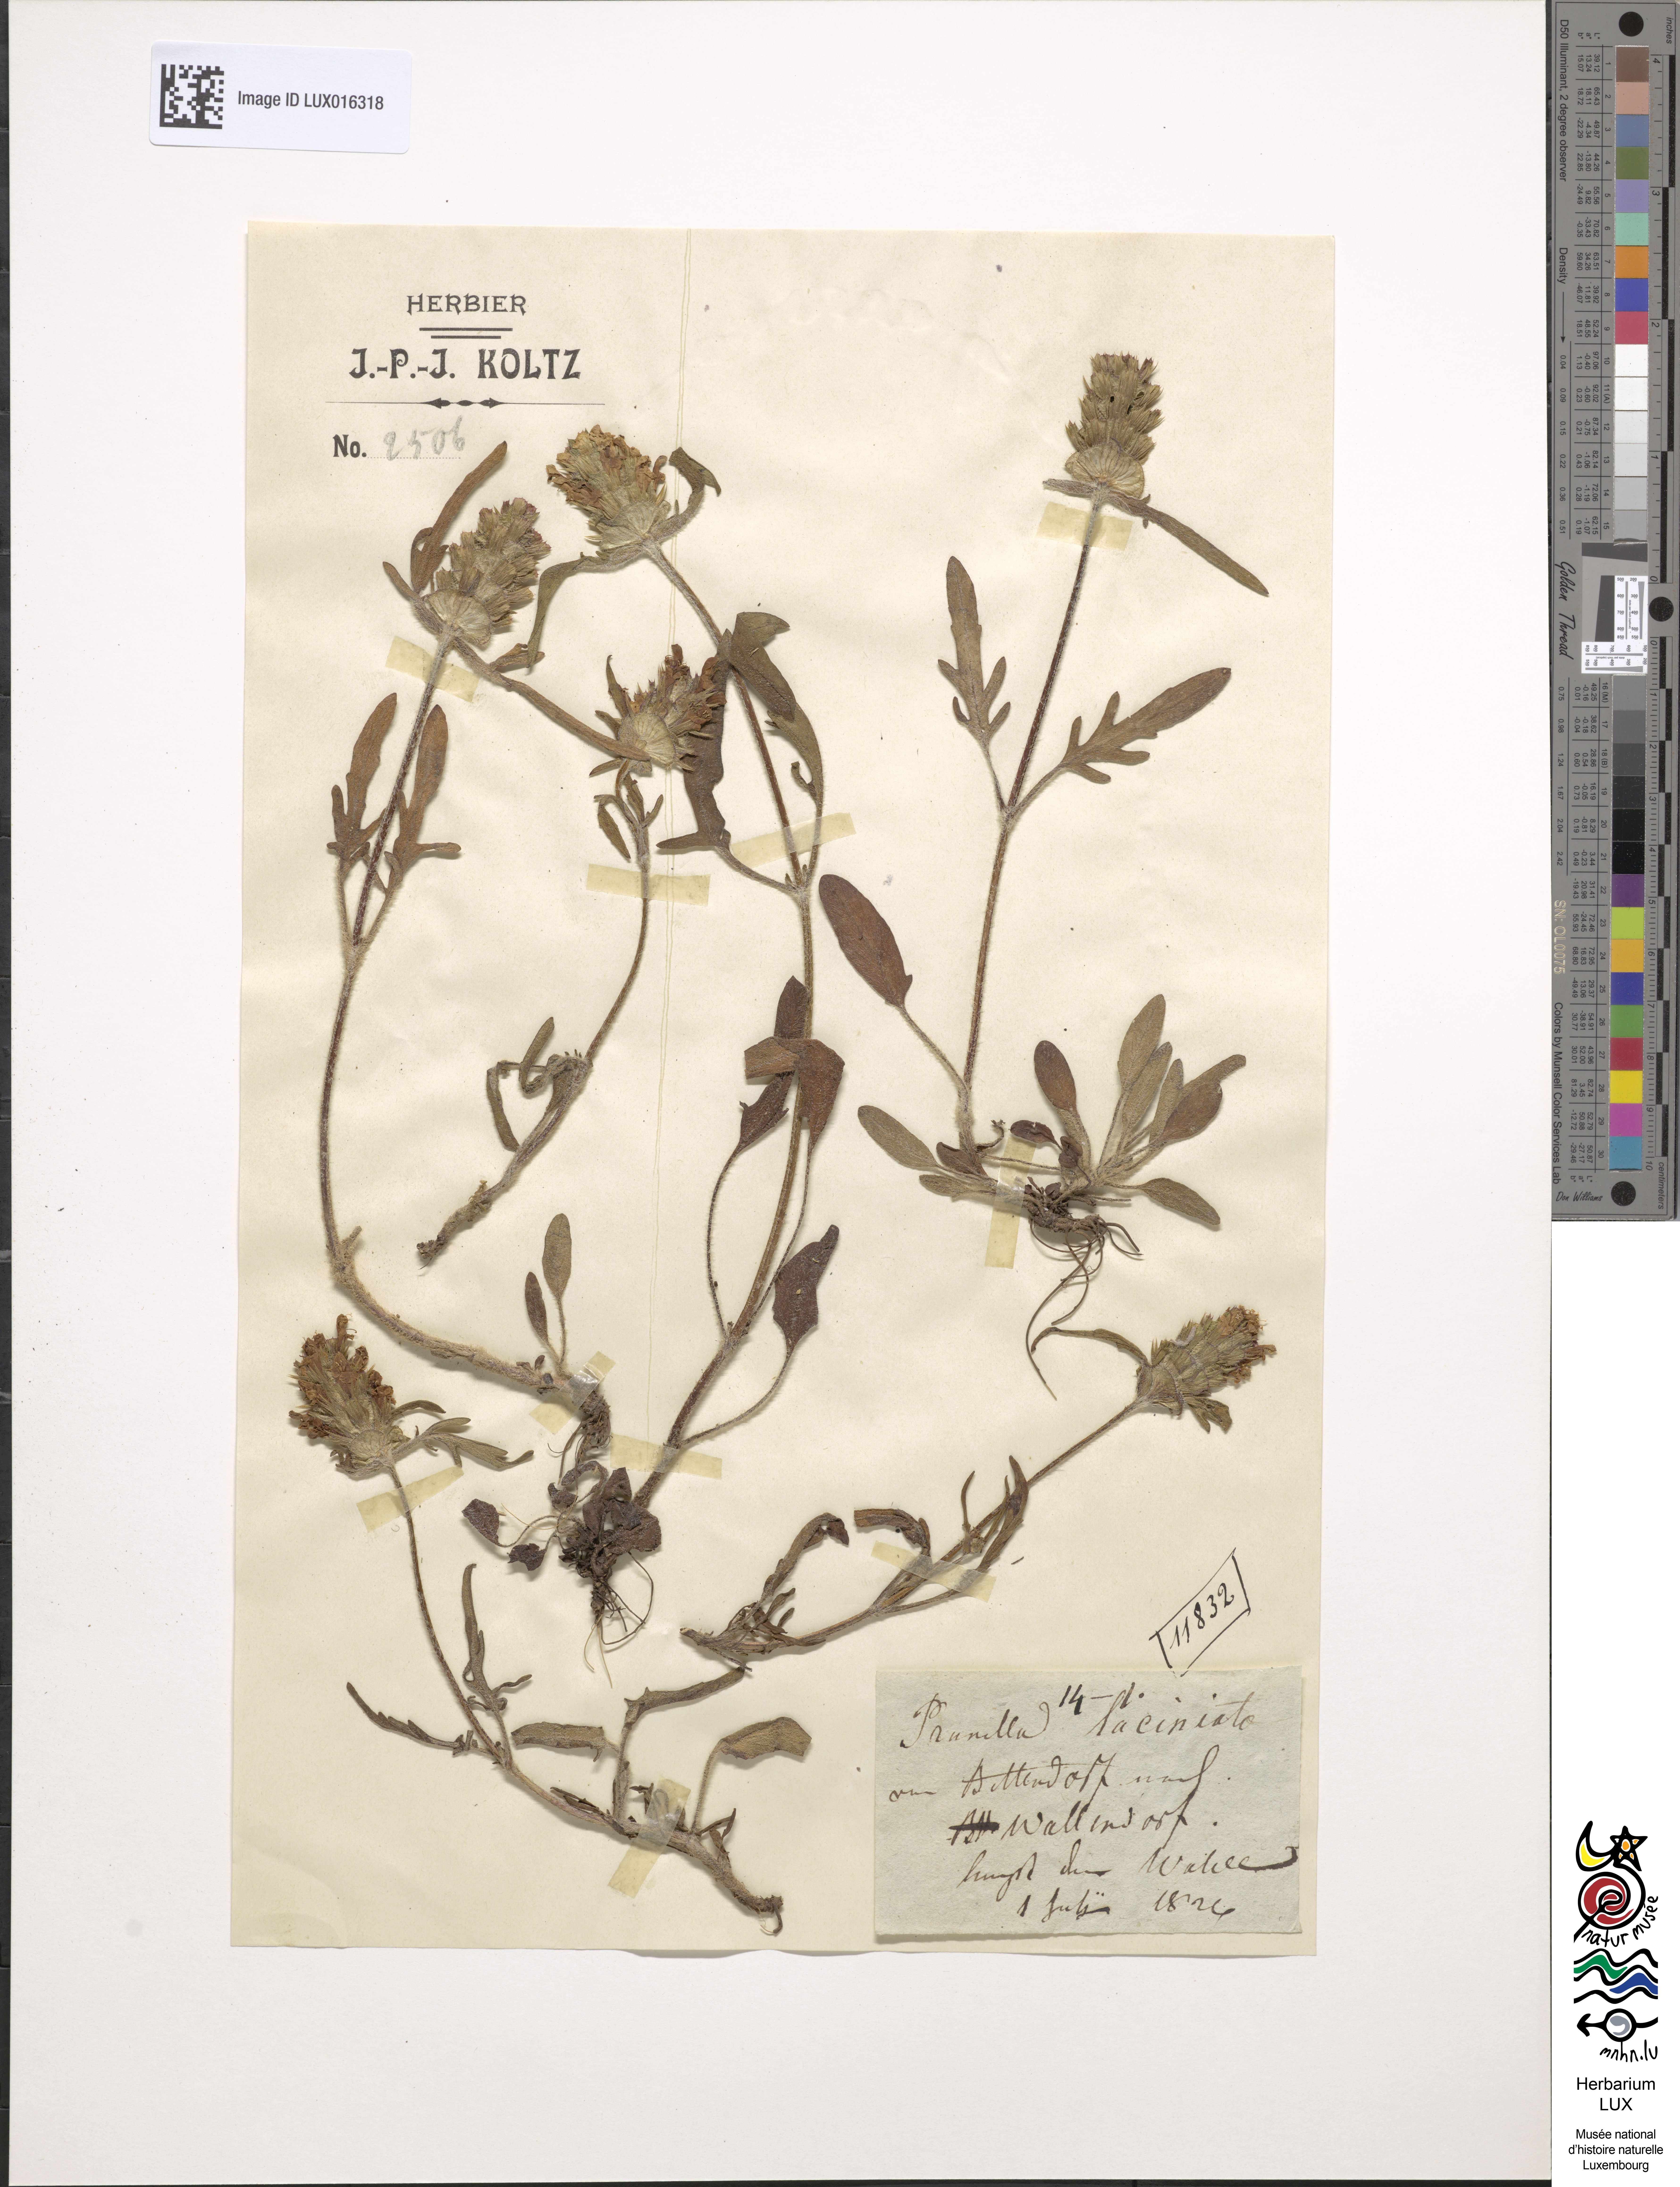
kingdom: Plantae
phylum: Tracheophyta
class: Magnoliopsida
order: Lamiales
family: Lamiaceae
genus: Prunella
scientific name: Prunella laciniata
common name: Cut-leaved selfheal
